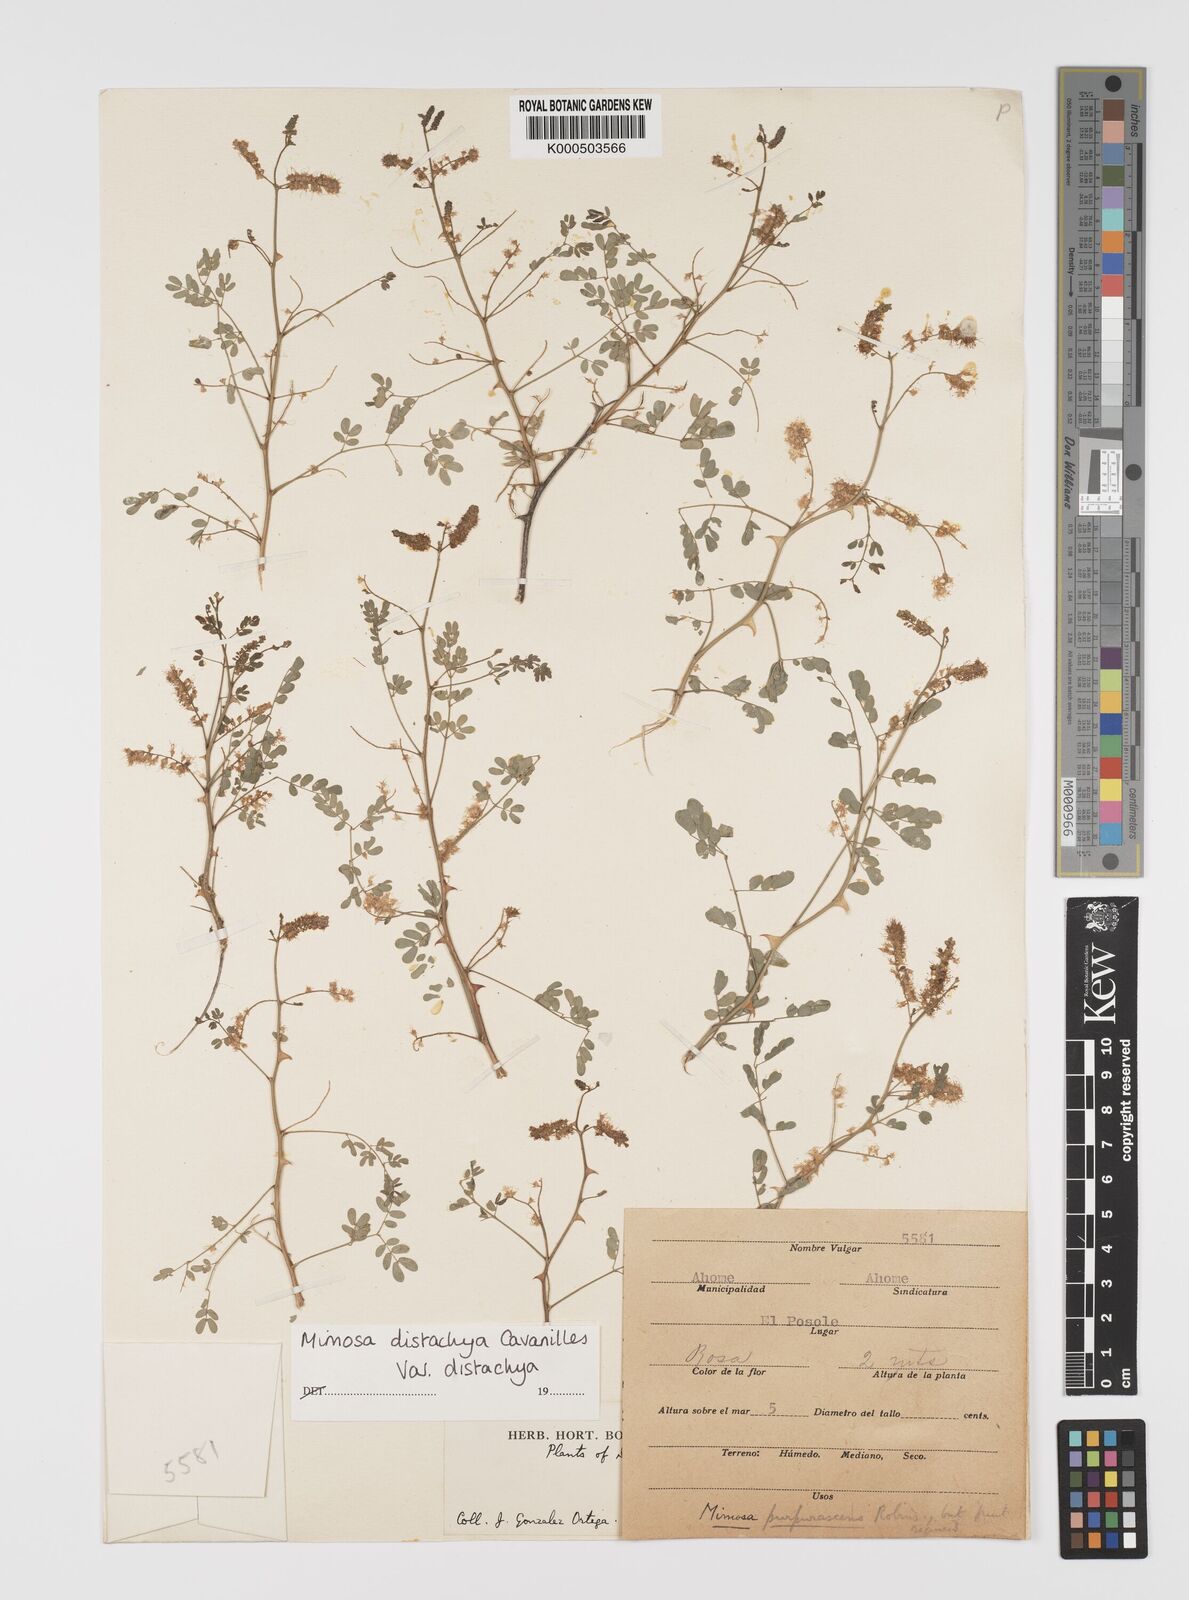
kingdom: Plantae
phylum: Tracheophyta
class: Magnoliopsida
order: Fabales
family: Fabaceae
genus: Mimosa
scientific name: Mimosa distachya
